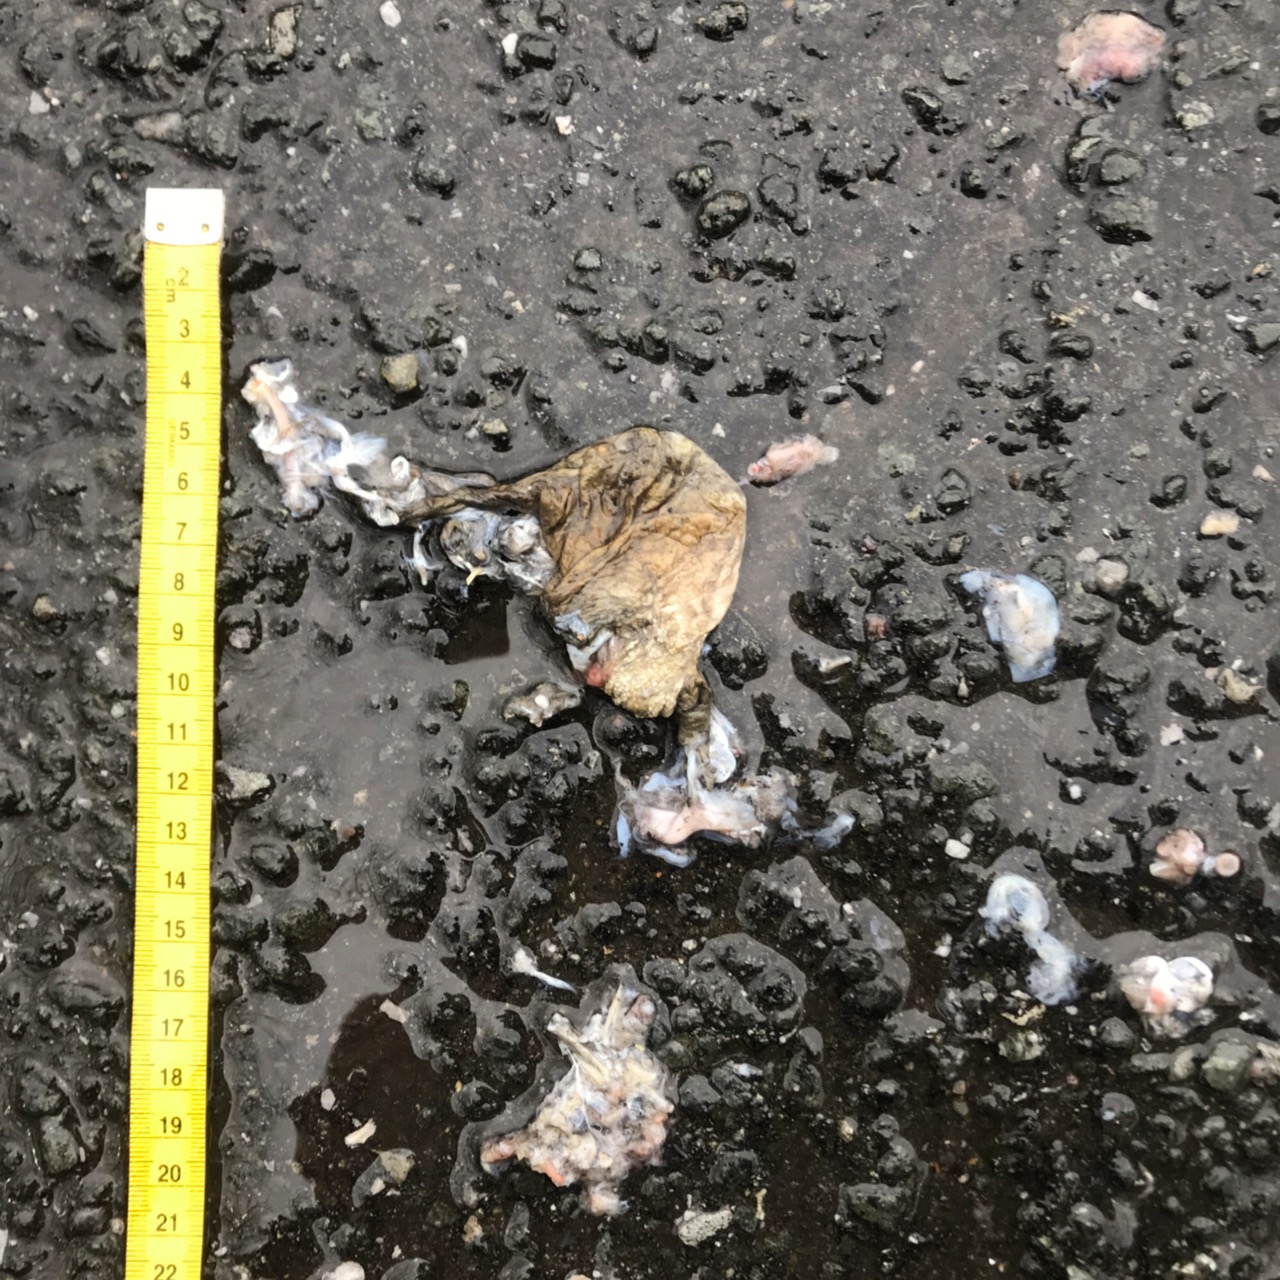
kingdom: Animalia
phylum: Chordata
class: Amphibia
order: Anura
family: Bufonidae
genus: Bufo
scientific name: Bufo bufo
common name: Common toad
